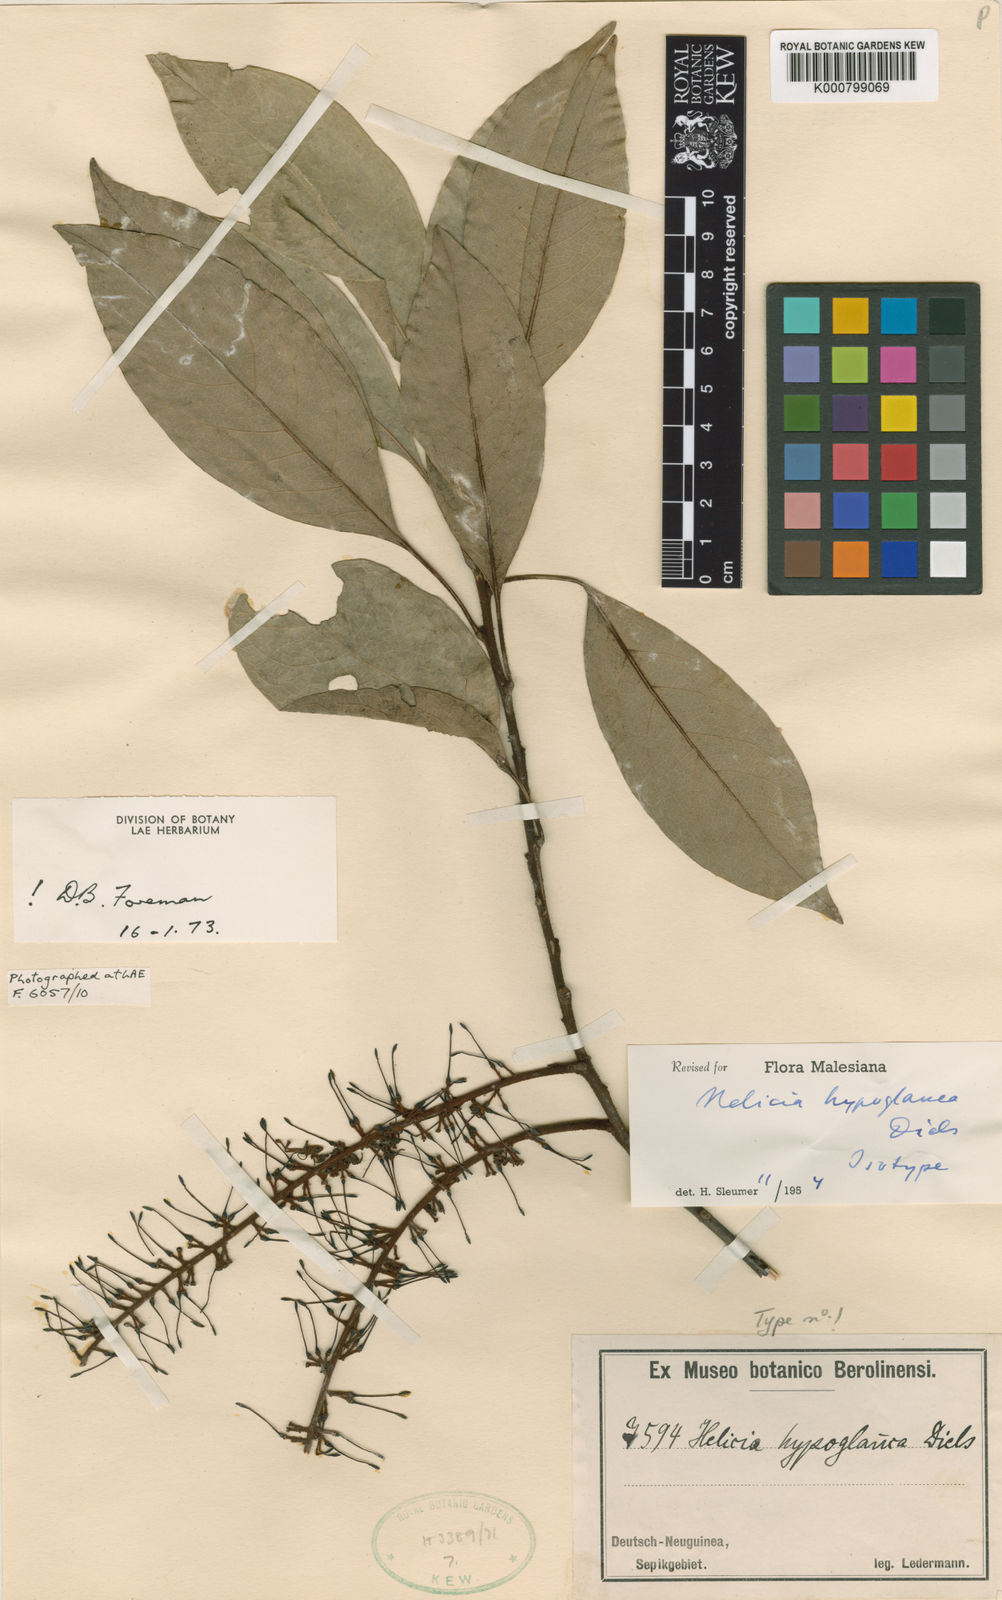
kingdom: Plantae
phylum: Tracheophyta
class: Magnoliopsida
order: Proteales
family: Proteaceae
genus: Helicia
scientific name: Helicia hypoglauca
